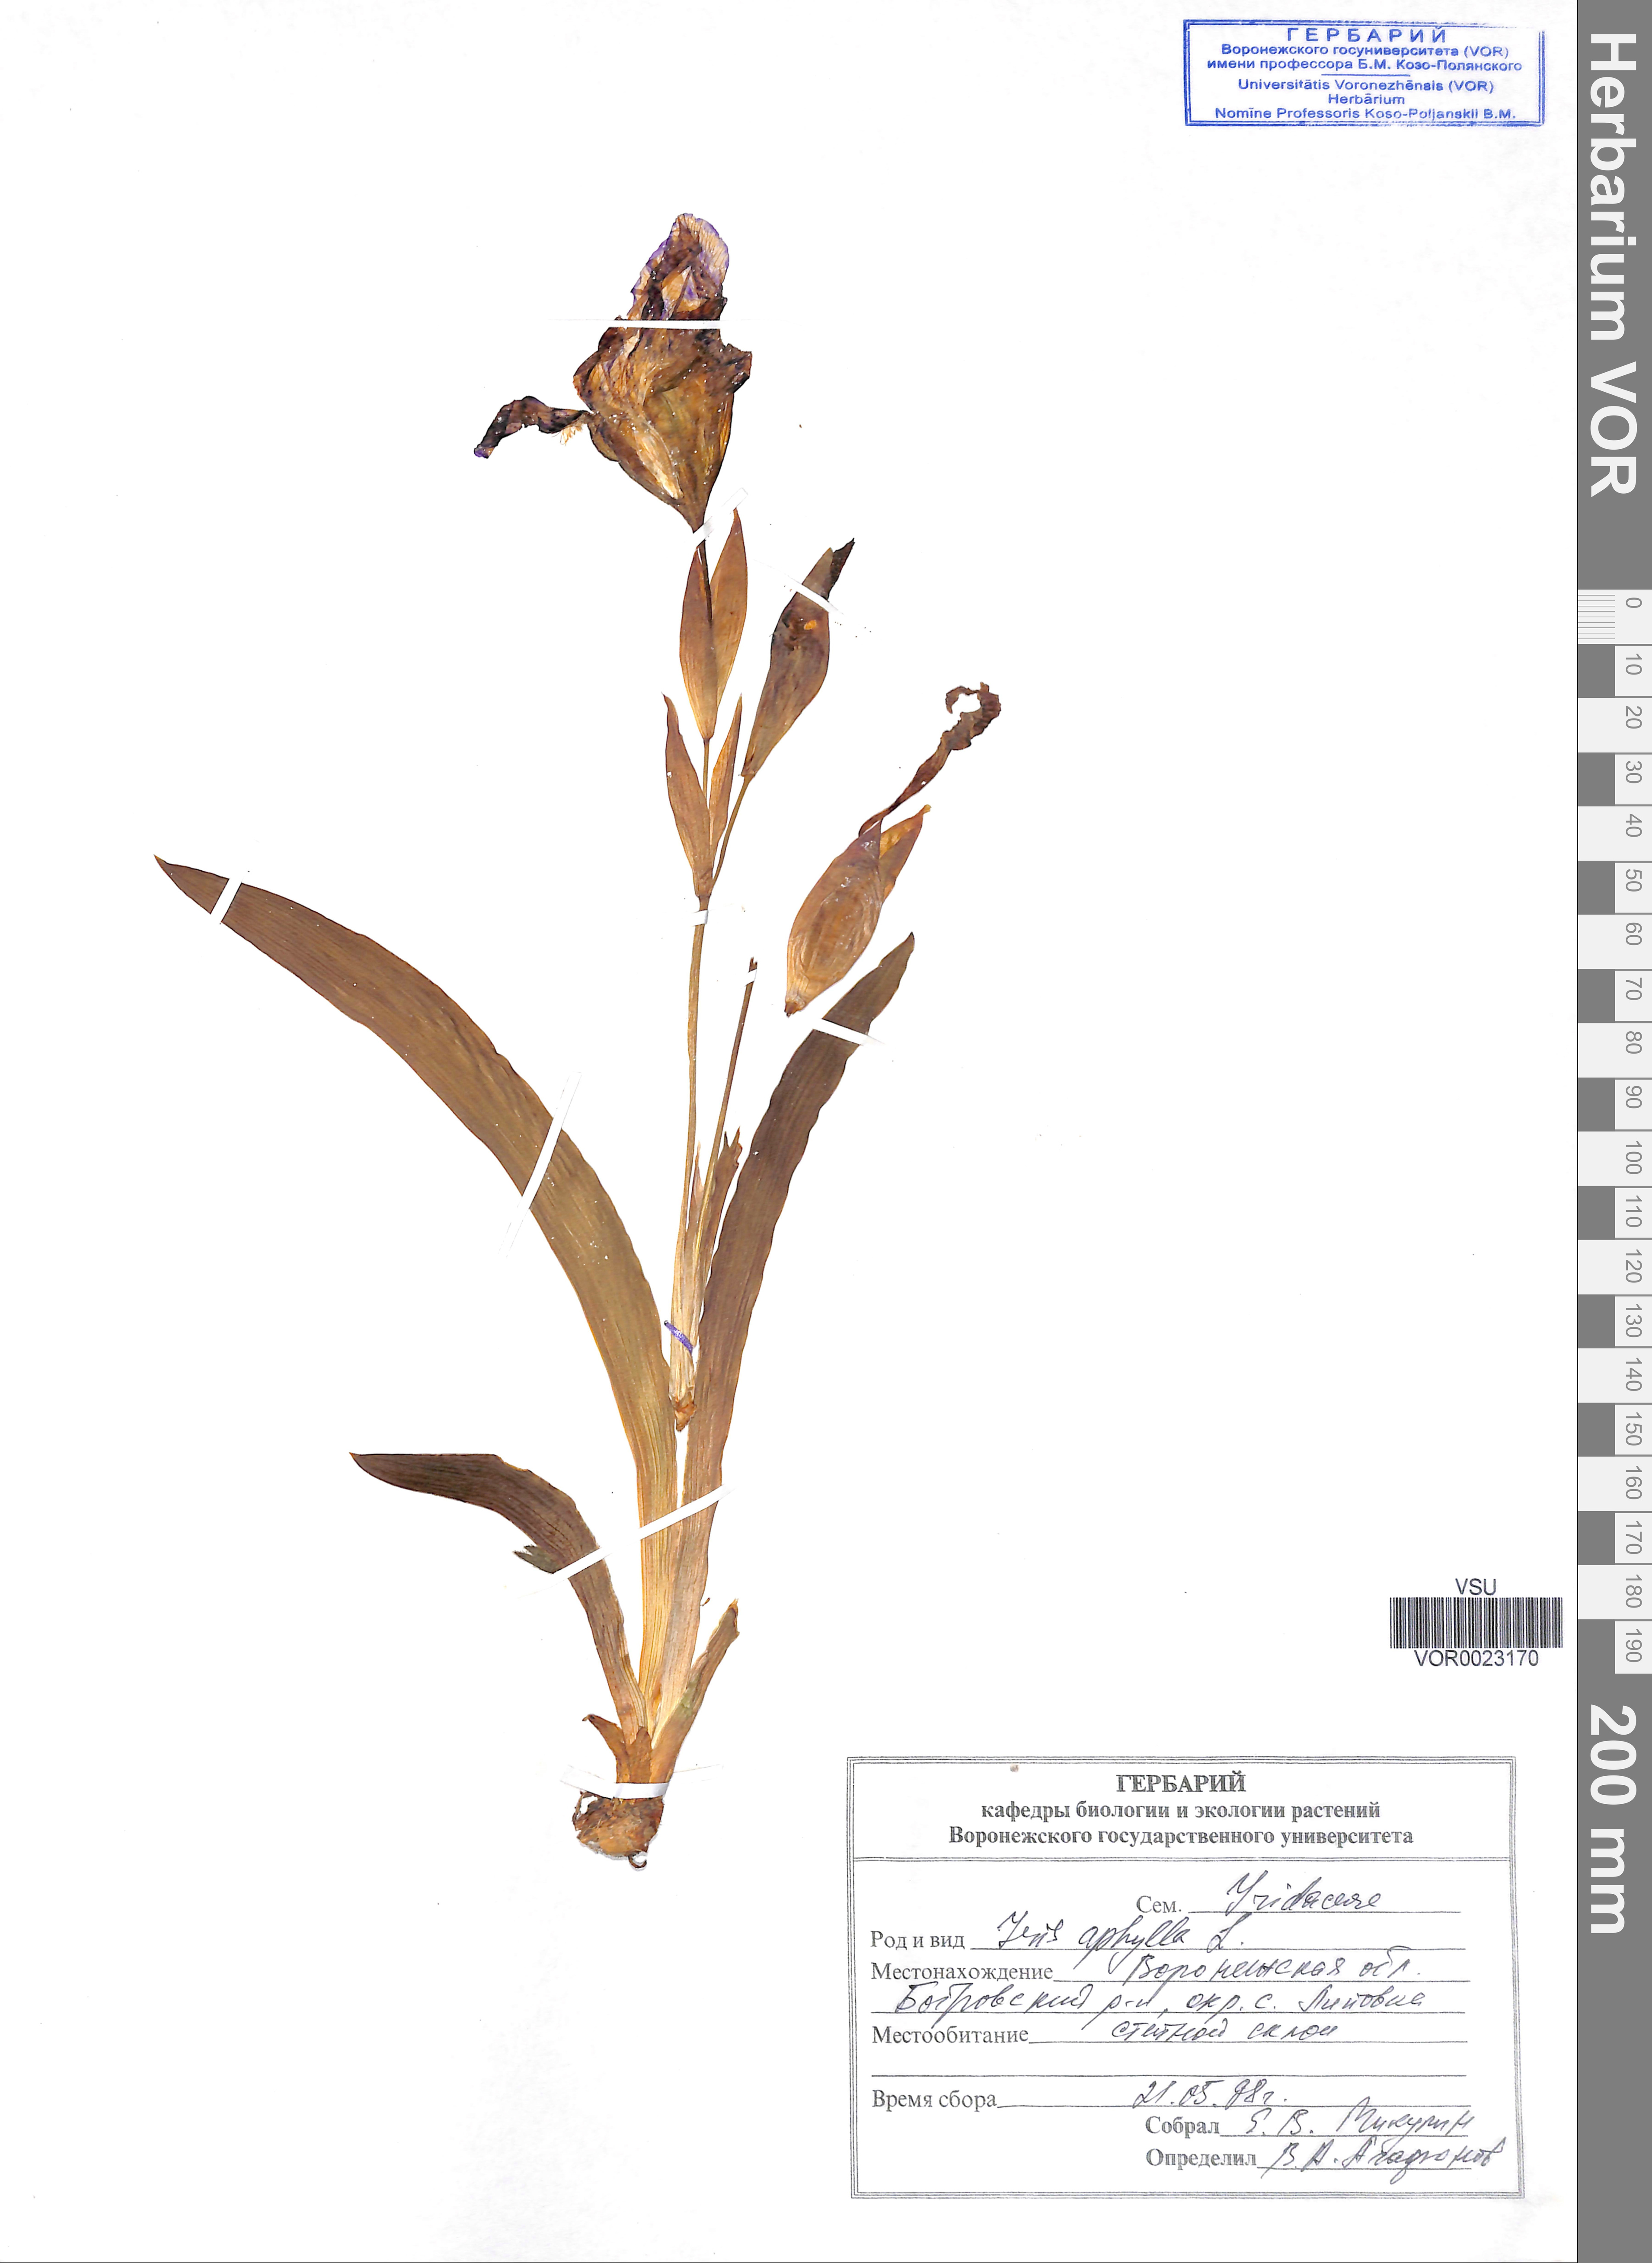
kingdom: Plantae
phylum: Tracheophyta
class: Liliopsida
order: Asparagales
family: Iridaceae
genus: Iris
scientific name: Iris aphylla
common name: Stool iris
